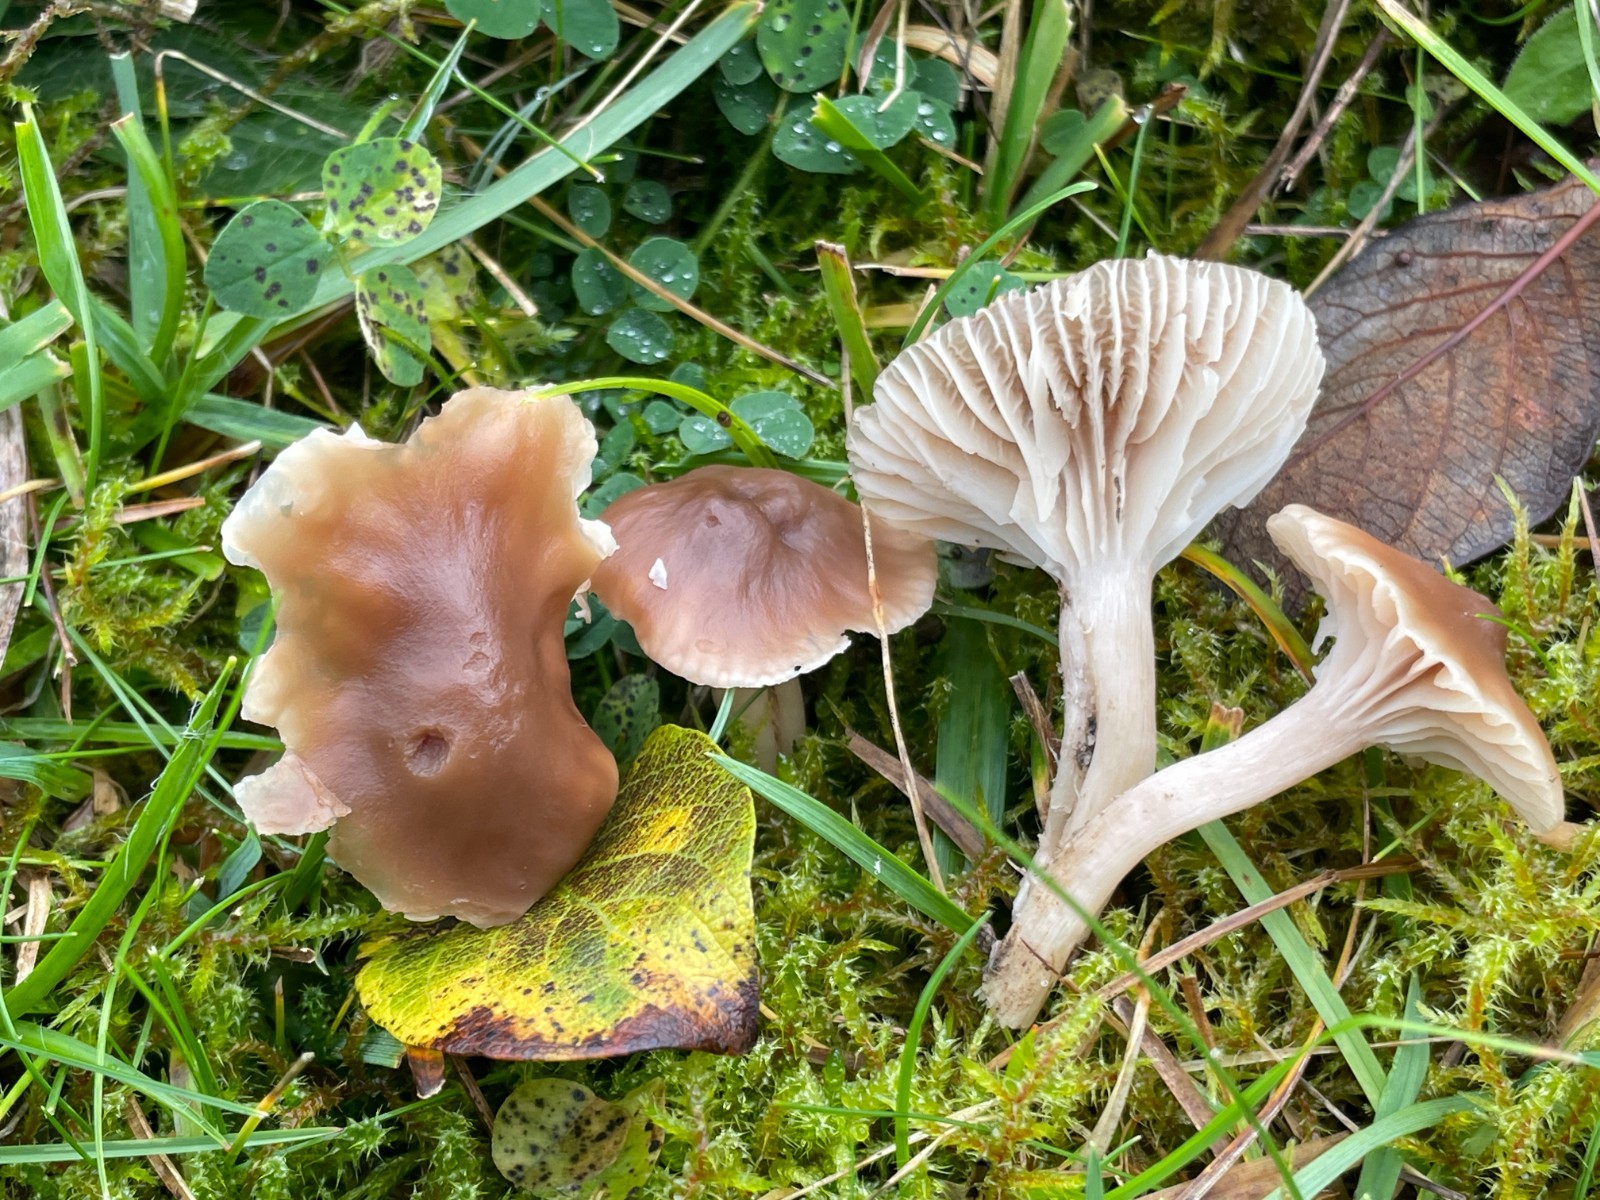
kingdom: Fungi
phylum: Basidiomycota
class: Agaricomycetes
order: Agaricales
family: Hygrophoraceae
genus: Cuphophyllus
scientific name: Cuphophyllus colemannianus
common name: rødbrun vokshat
